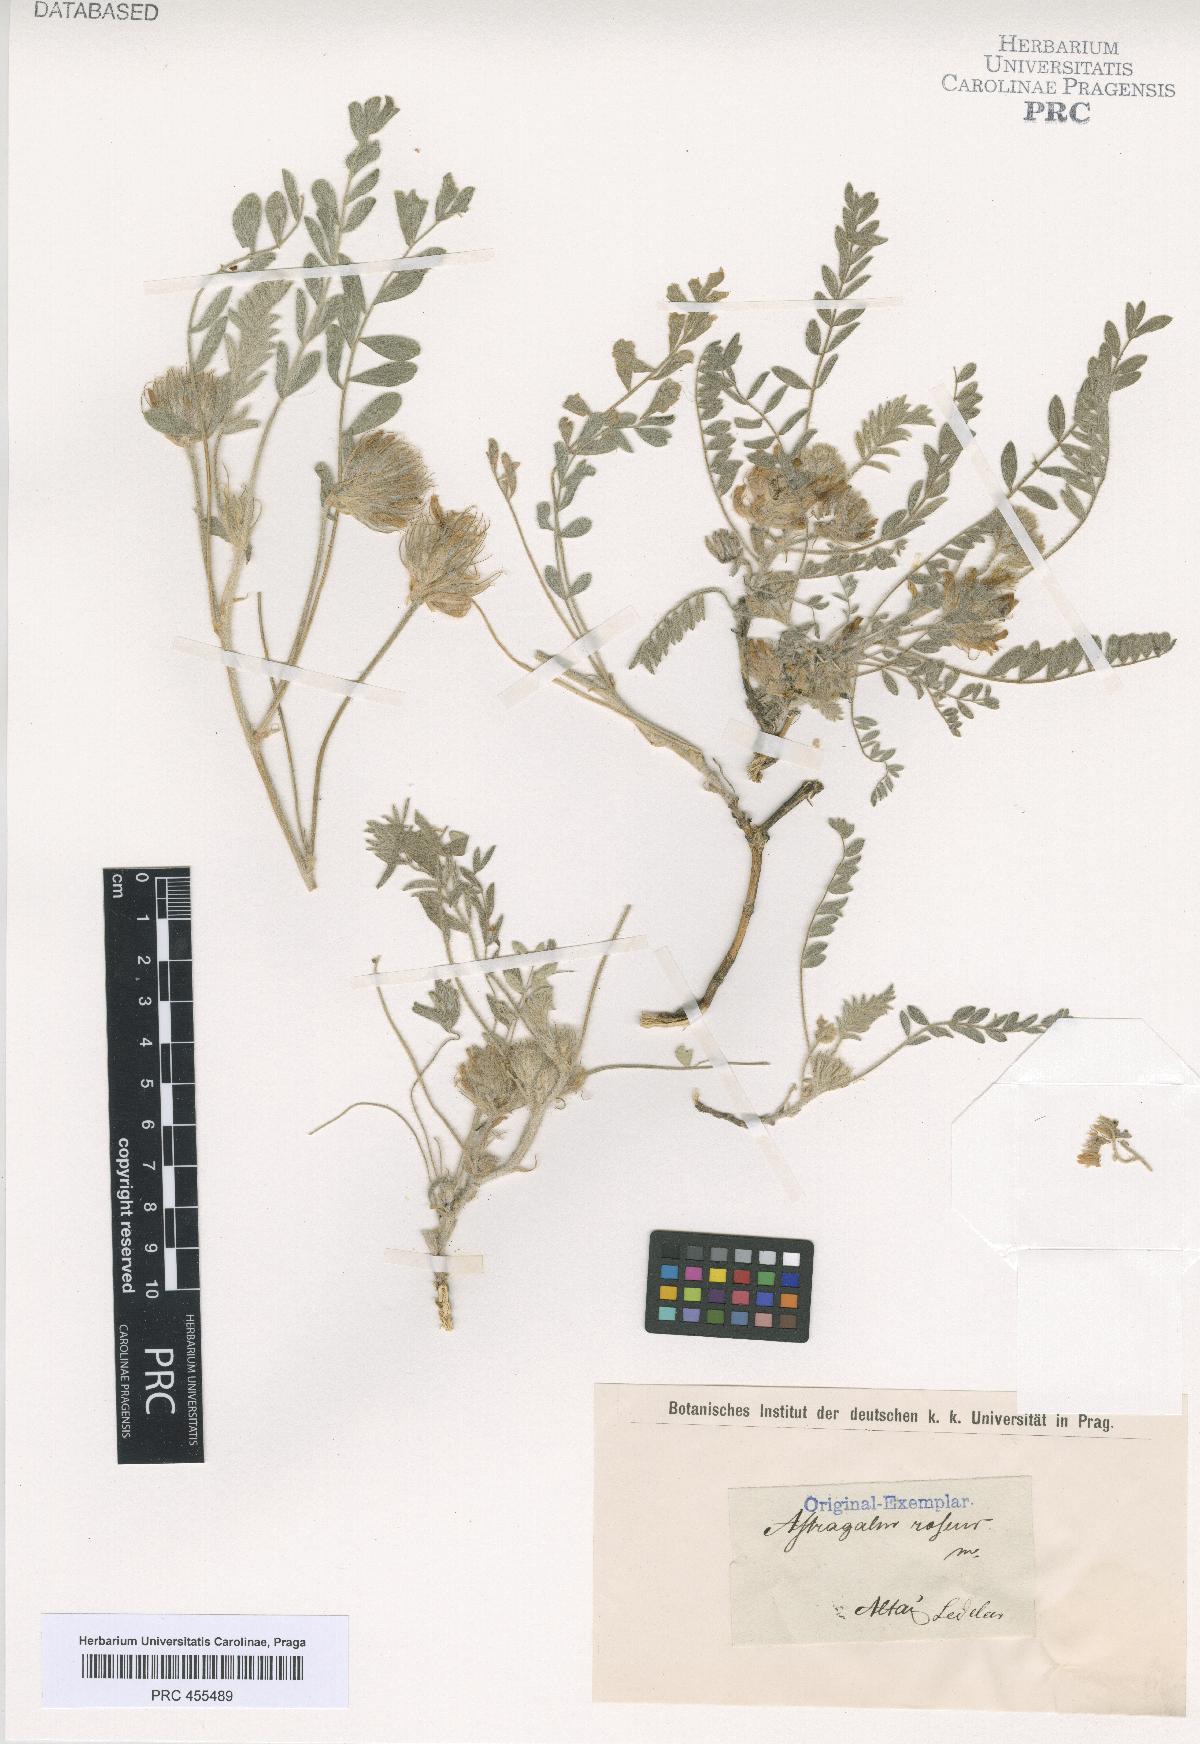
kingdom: Plantae
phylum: Tracheophyta
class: Magnoliopsida
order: Fabales
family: Fabaceae
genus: Astragalus
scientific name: Astragalus
